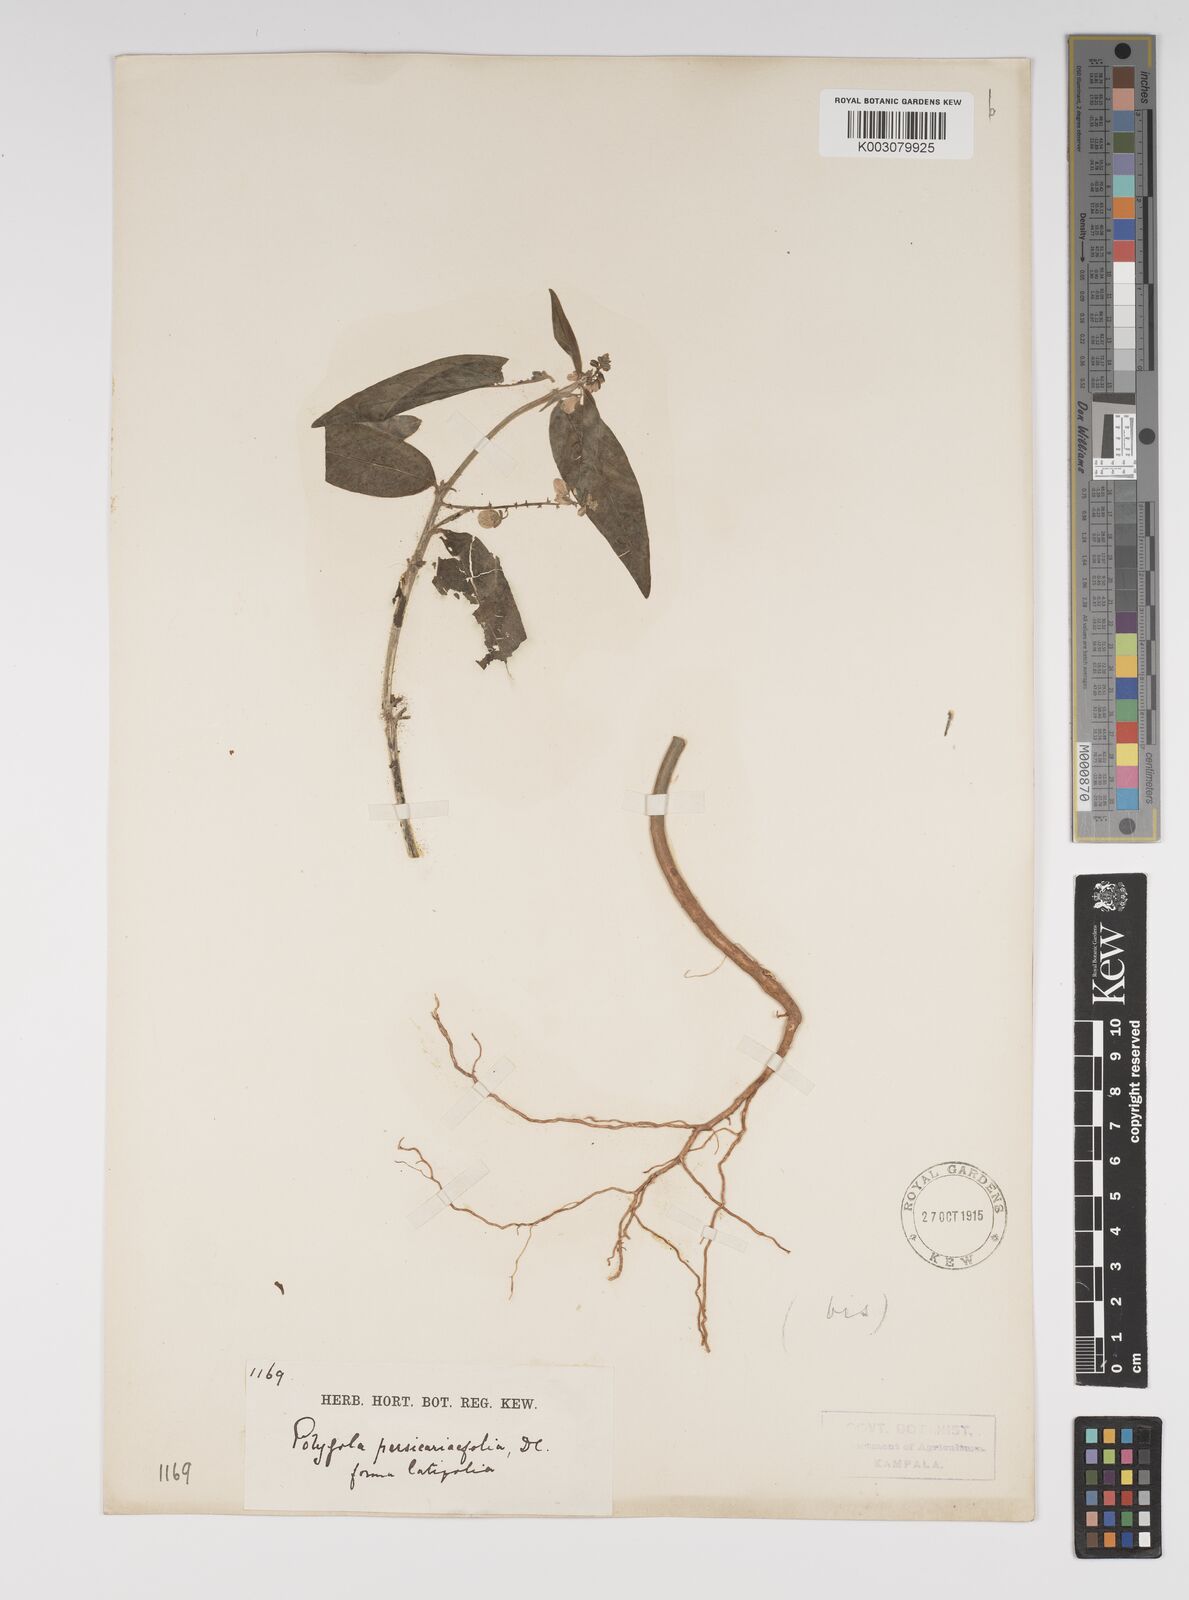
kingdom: Plantae
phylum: Tracheophyta
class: Magnoliopsida
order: Fabales
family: Polygalaceae
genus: Polygala
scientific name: Polygala persicariifolia
